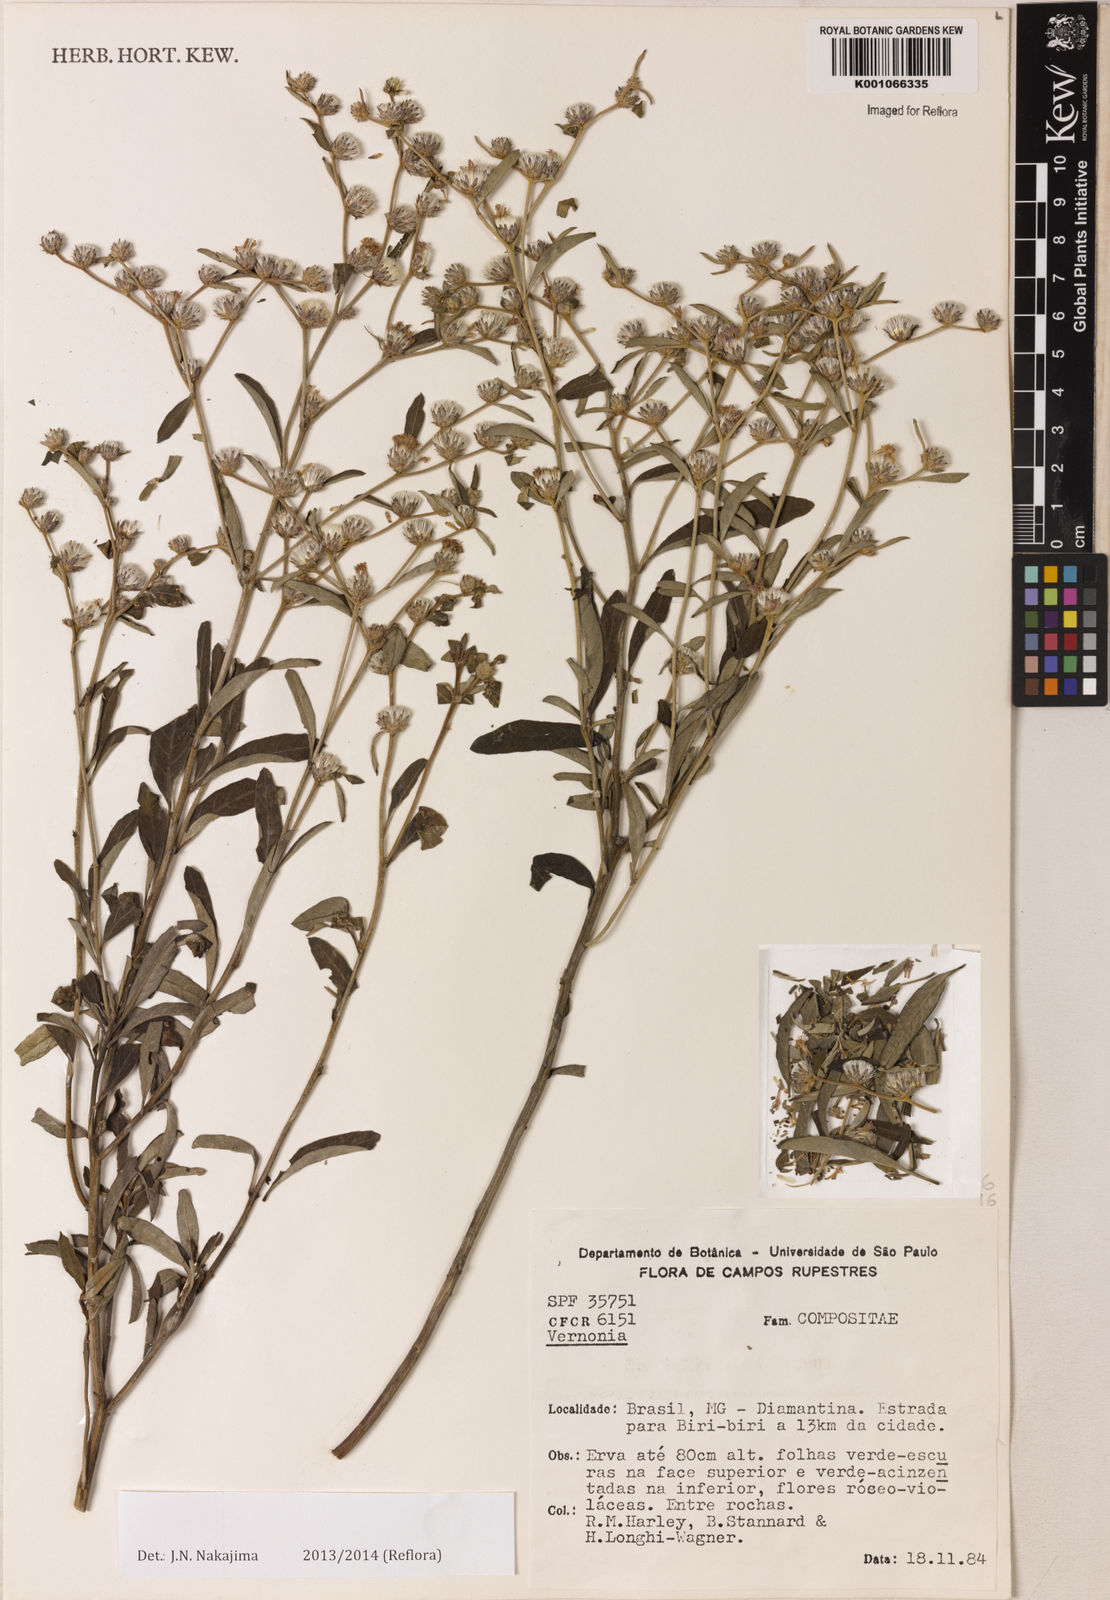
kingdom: Plantae
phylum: Tracheophyta
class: Magnoliopsida
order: Asterales
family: Asteraceae
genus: Lepidaploa
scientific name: Lepidaploa chalybaea
